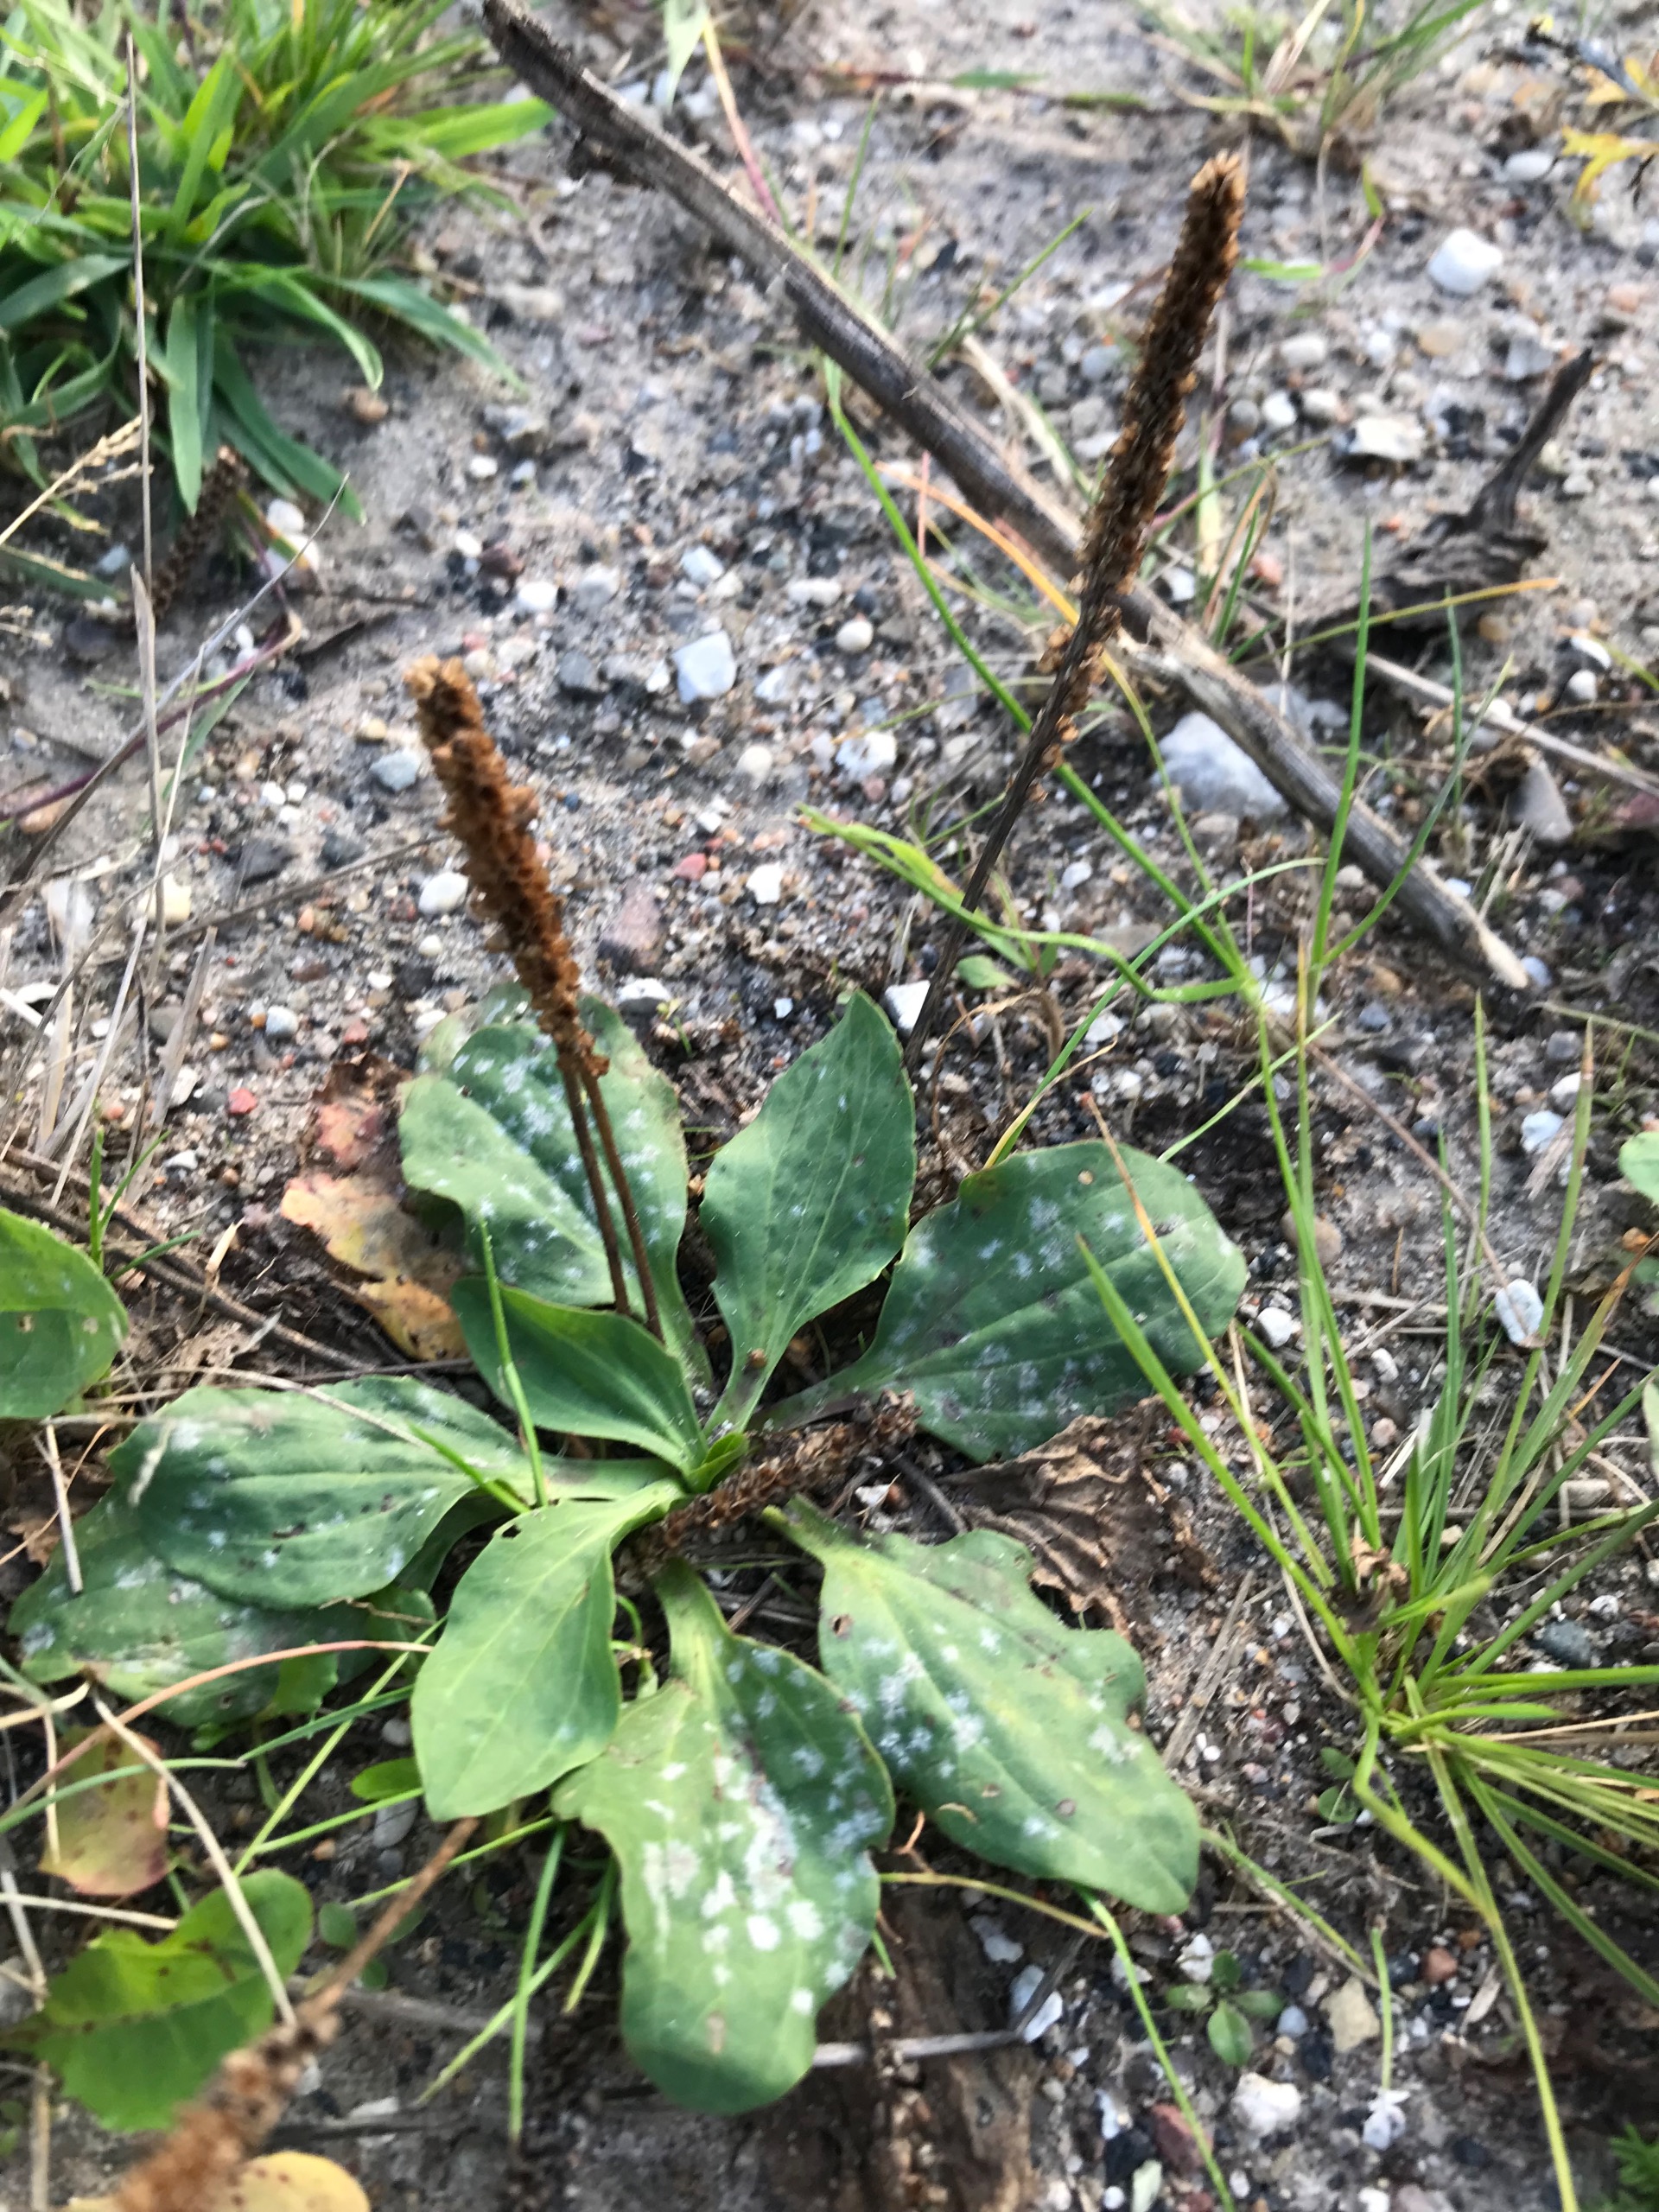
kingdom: Plantae
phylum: Tracheophyta
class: Magnoliopsida
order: Lamiales
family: Plantaginaceae
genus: Plantago
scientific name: Plantago major
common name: Glat vejbred
